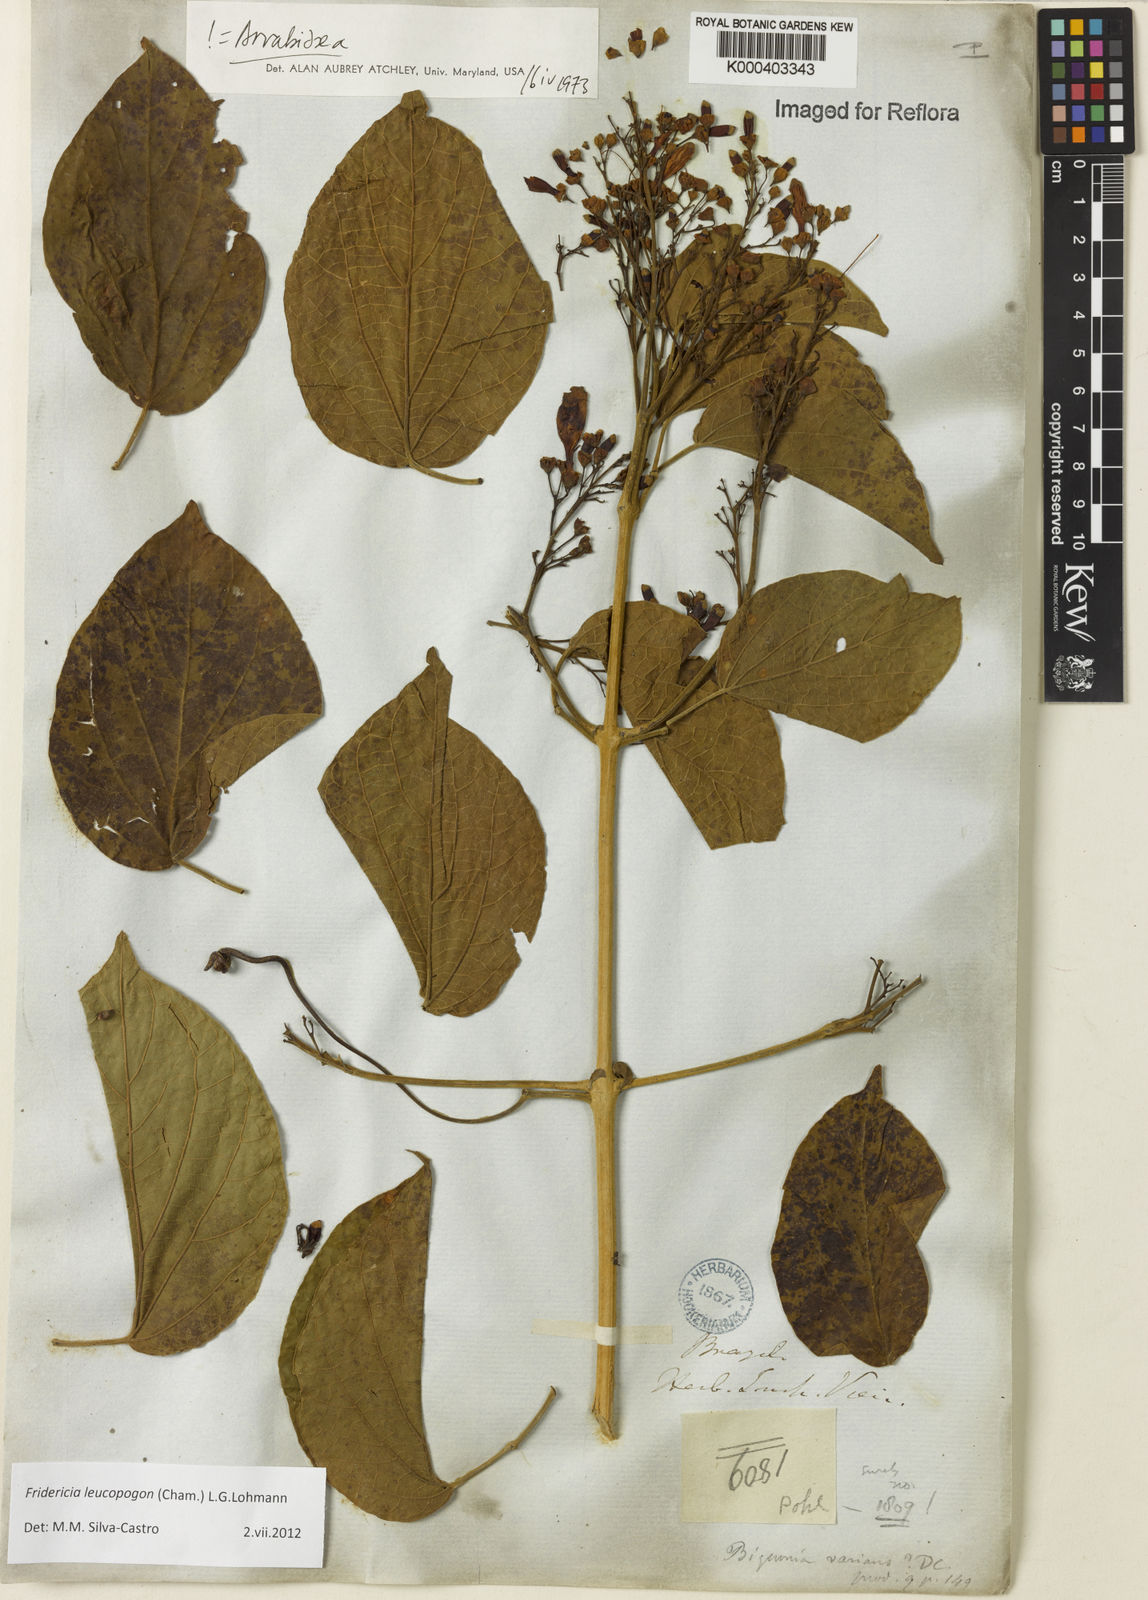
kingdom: Plantae
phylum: Tracheophyta
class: Magnoliopsida
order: Lamiales
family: Bignoniaceae
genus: Fridericia
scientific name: Fridericia leucopogon
